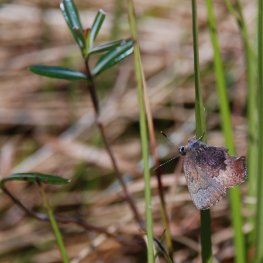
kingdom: Animalia
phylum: Arthropoda
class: Insecta
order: Lepidoptera
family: Lycaenidae
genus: Incisalia
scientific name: Incisalia irioides
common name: Brown Elfin
